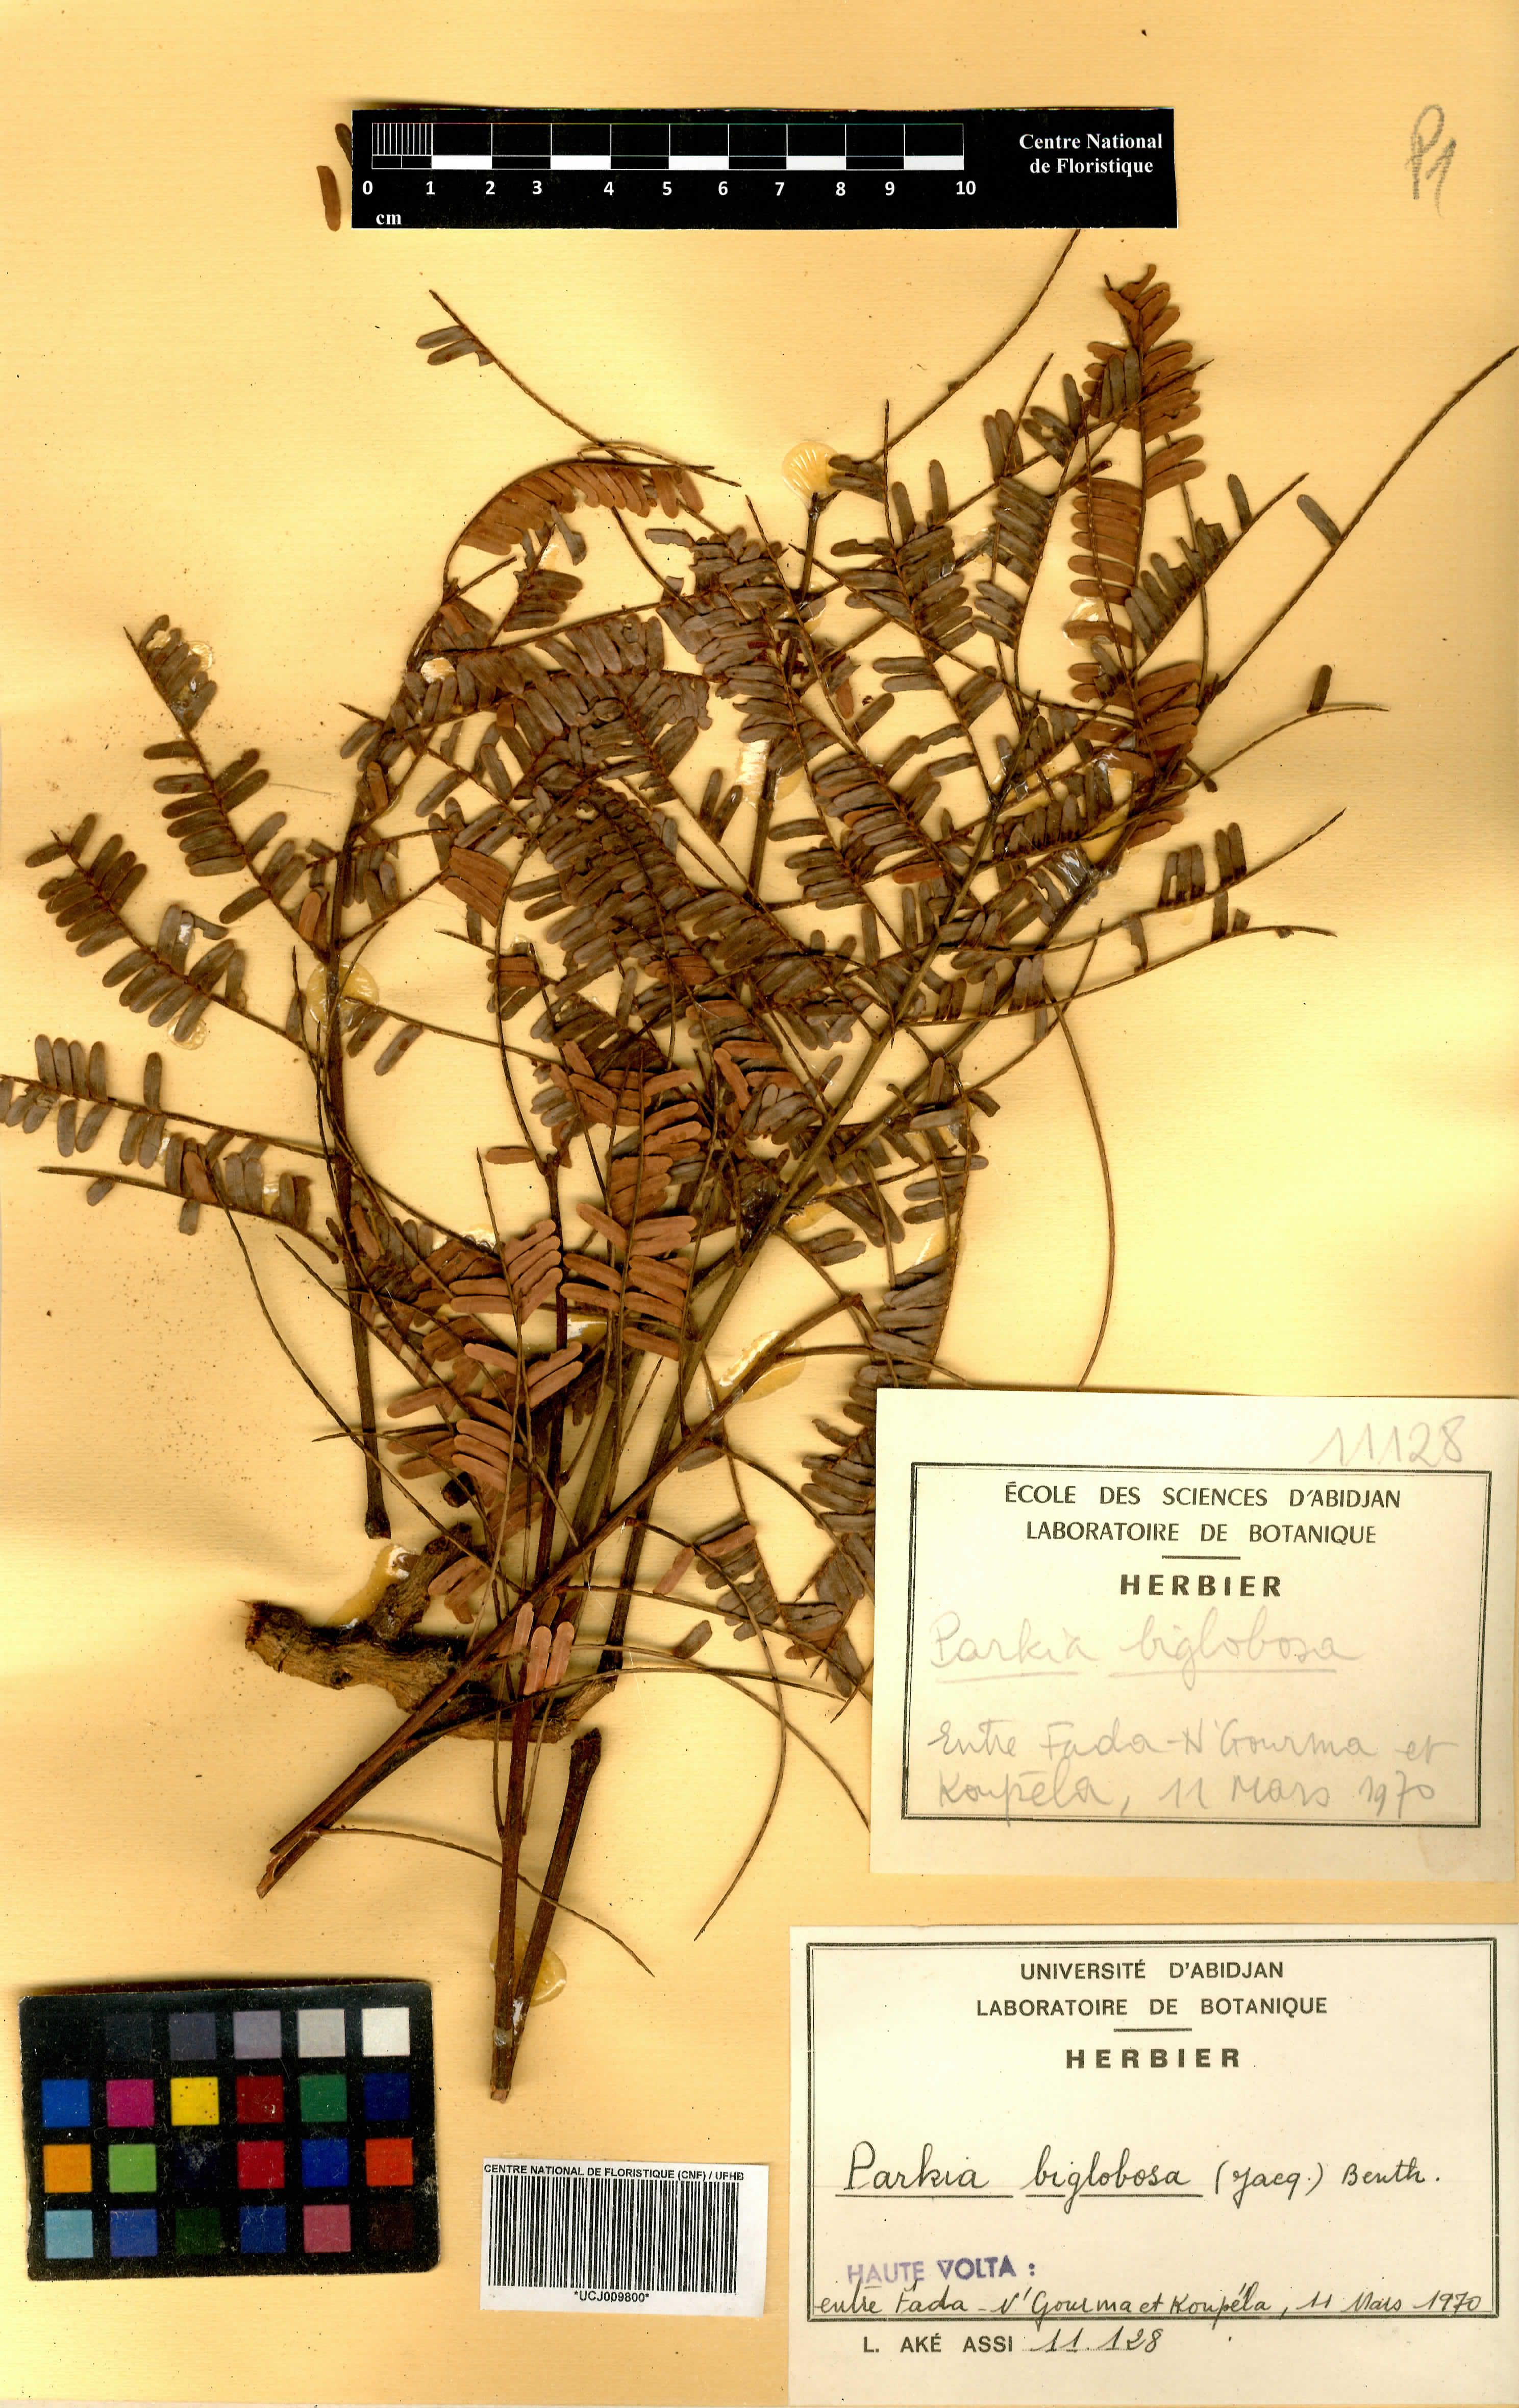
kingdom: Plantae
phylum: Tracheophyta
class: Magnoliopsida
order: Fabales
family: Fabaceae
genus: Parkia
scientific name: Parkia timoriana
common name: Legume
